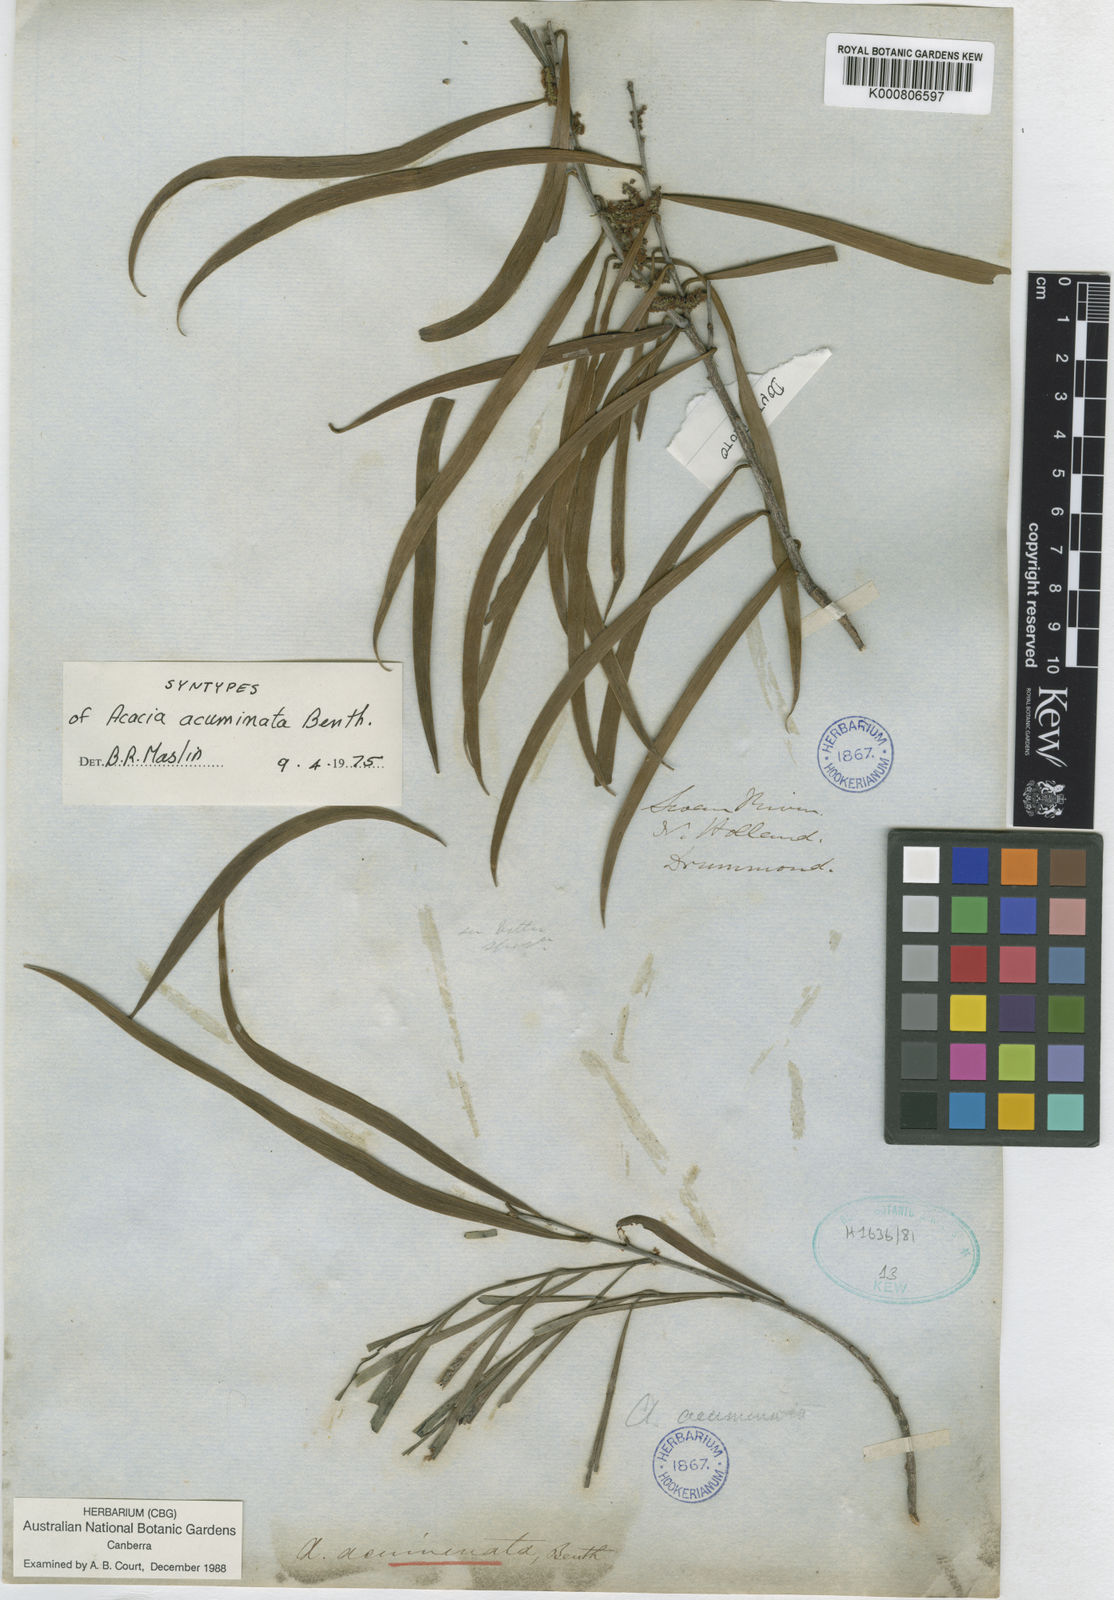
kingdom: Plantae
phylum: Tracheophyta
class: Magnoliopsida
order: Fabales
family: Fabaceae
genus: Acacia
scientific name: Acacia acuminata
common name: Jam wattle
